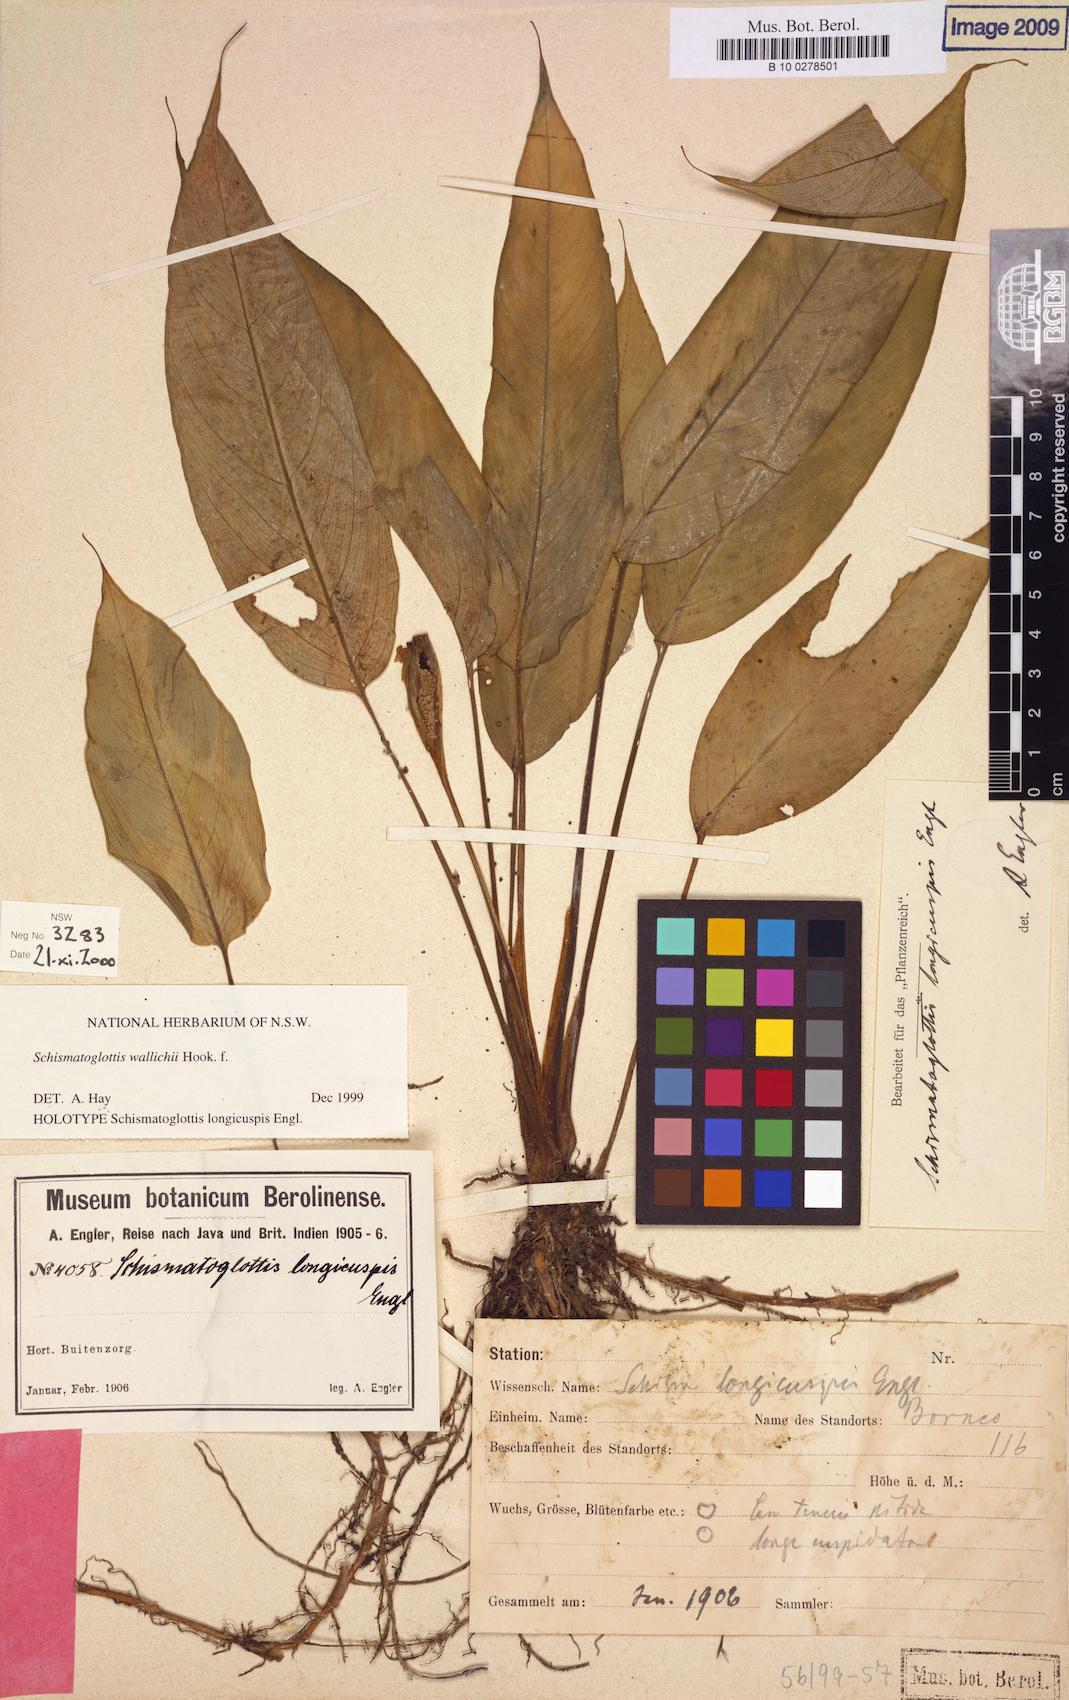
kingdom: Plantae
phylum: Tracheophyta
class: Liliopsida
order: Alismatales
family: Araceae
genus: Schismatoglottis
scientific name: Schismatoglottis wallichii
